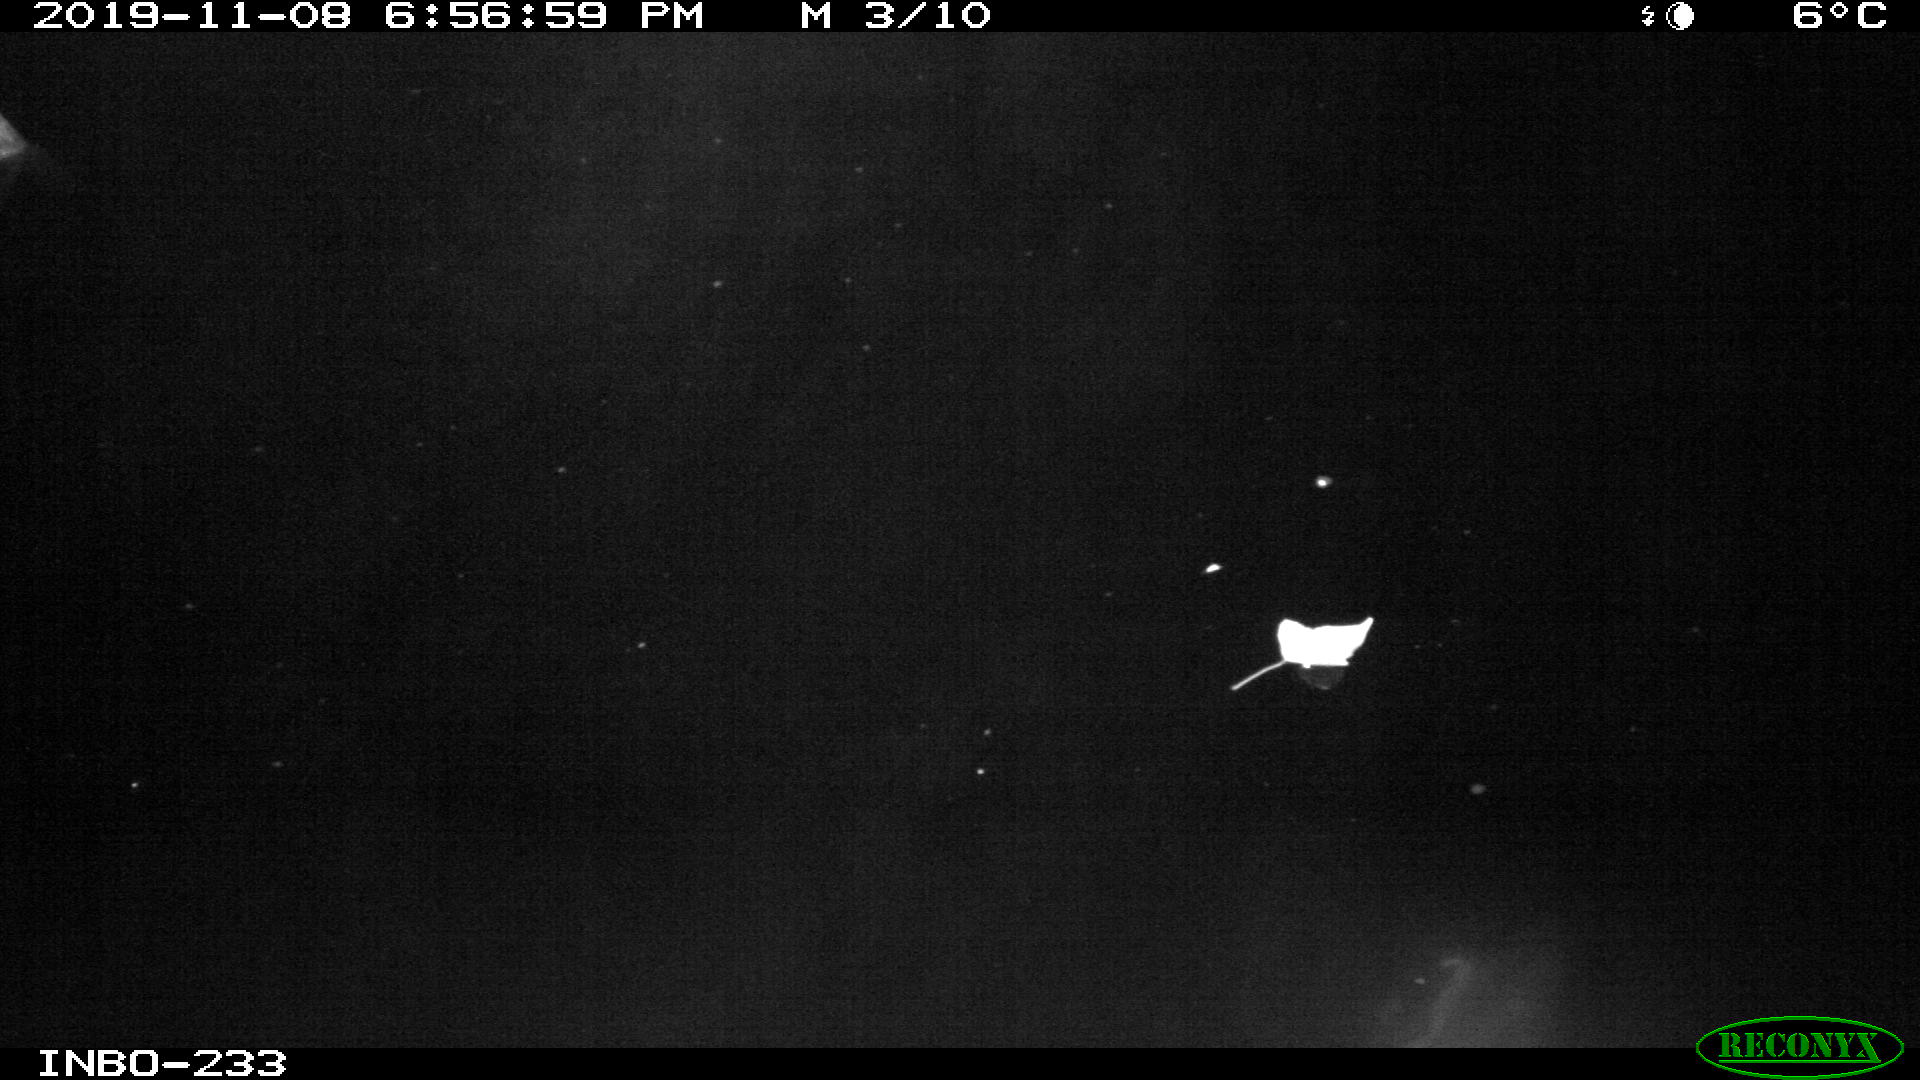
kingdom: Animalia
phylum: Chordata
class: Aves
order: Anseriformes
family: Anatidae
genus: Anas
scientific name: Anas platyrhynchos
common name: Mallard
